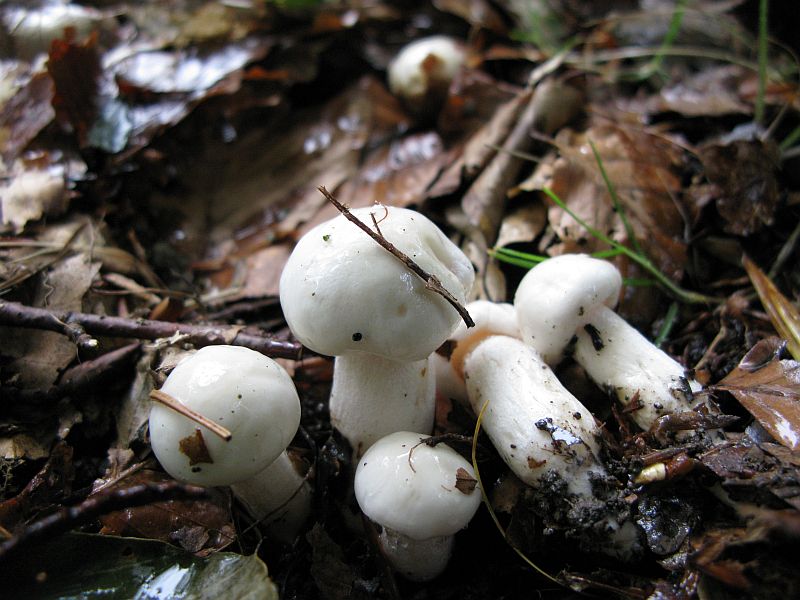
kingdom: Fungi
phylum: Basidiomycota
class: Agaricomycetes
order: Agaricales
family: Hygrophoraceae
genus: Hygrophorus
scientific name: Hygrophorus eburneus
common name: elfenbens-sneglehat
